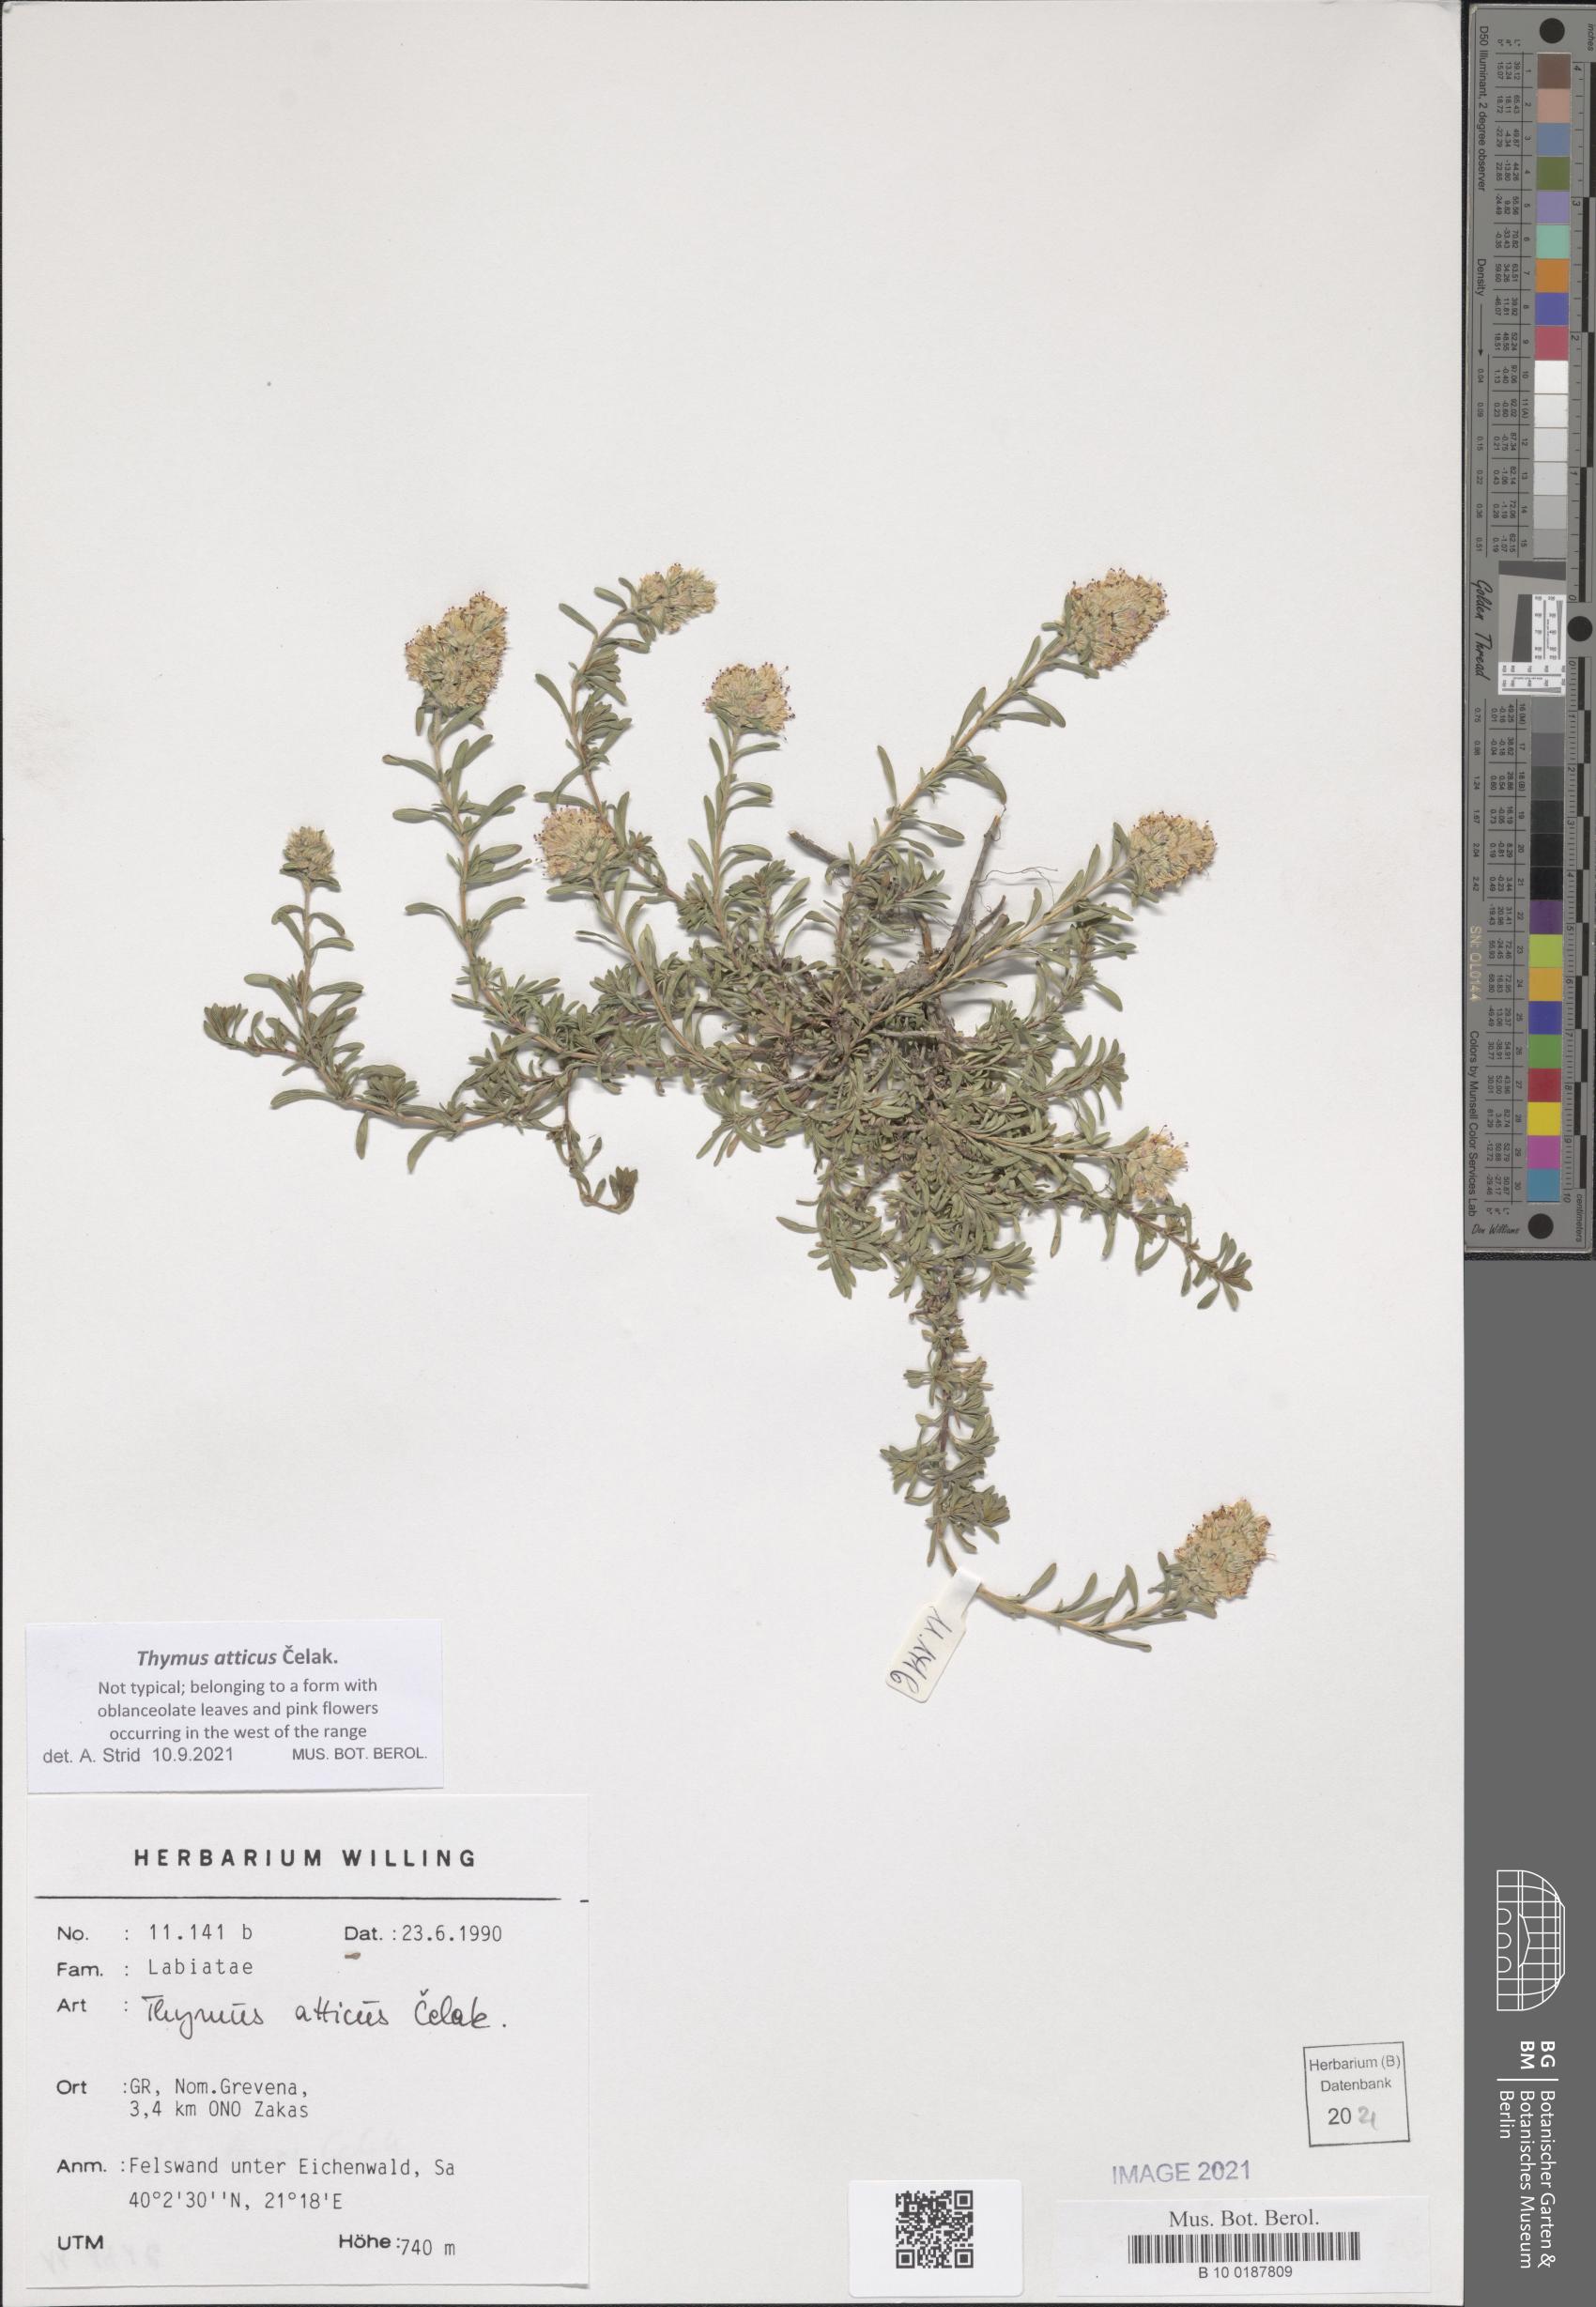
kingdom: Plantae
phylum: Tracheophyta
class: Magnoliopsida
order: Lamiales
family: Lamiaceae
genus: Thymus
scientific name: Thymus atticus
